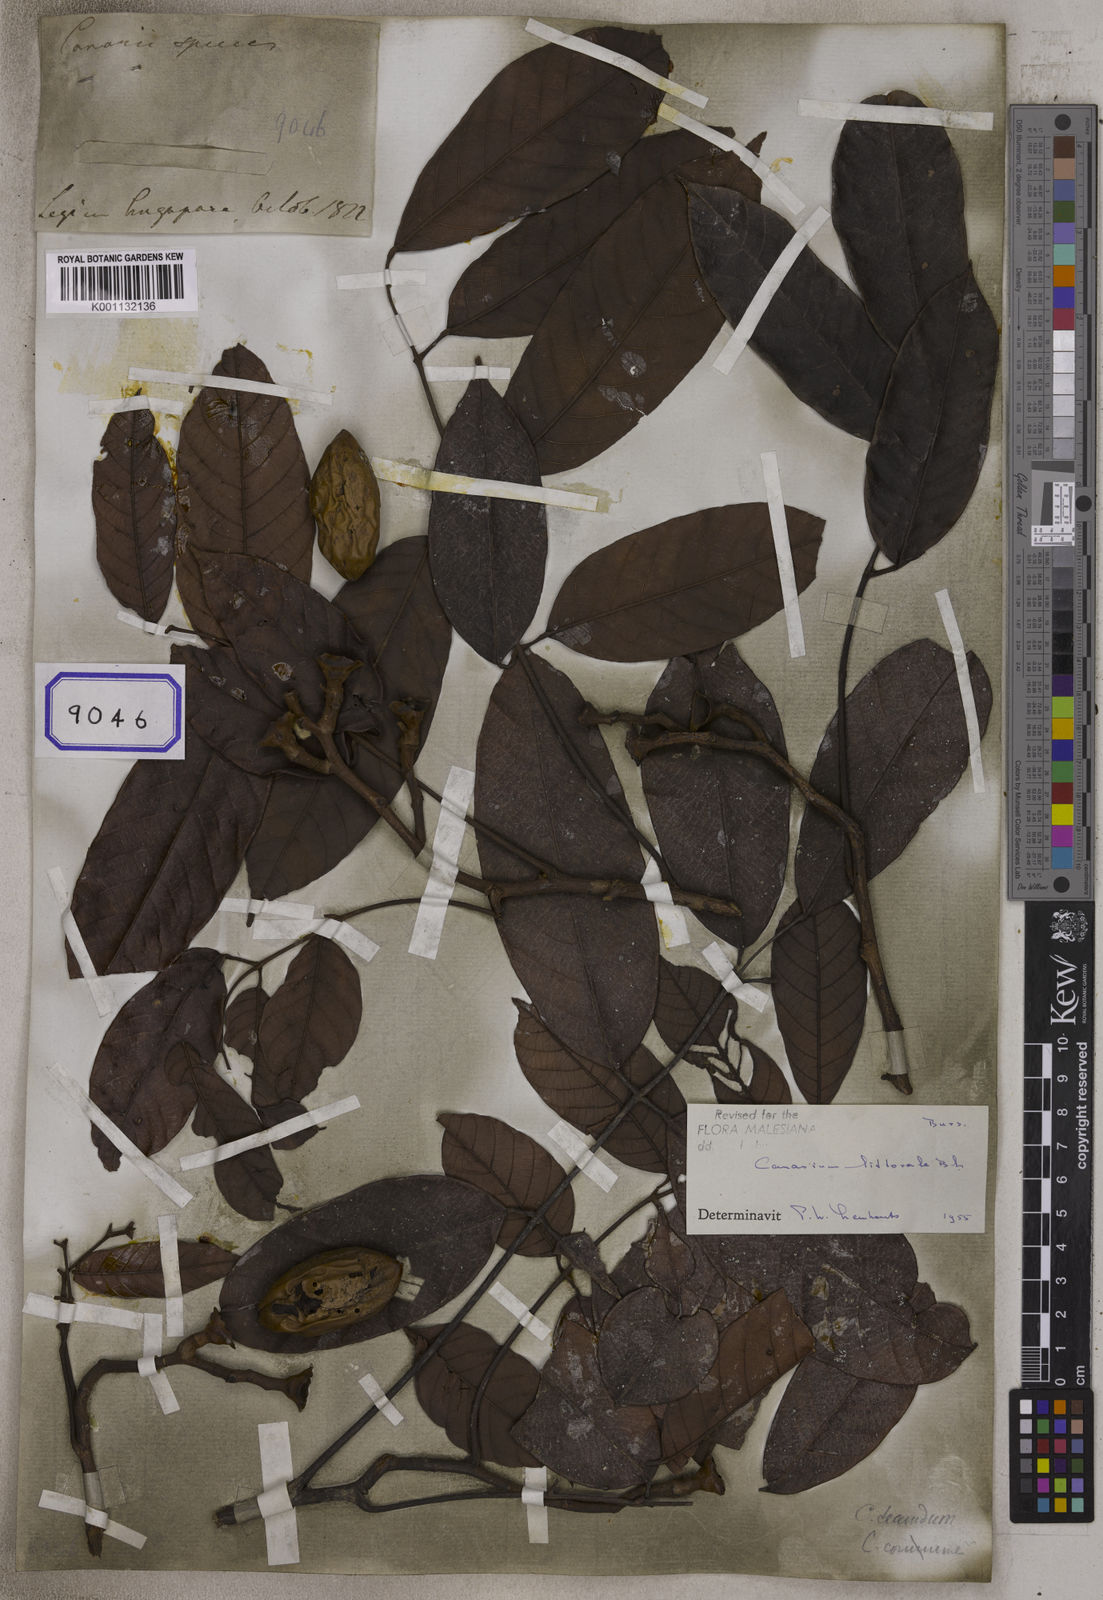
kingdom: Plantae
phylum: Tracheophyta
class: Magnoliopsida
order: Sapindales
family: Burseraceae
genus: Canarium
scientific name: Canarium
